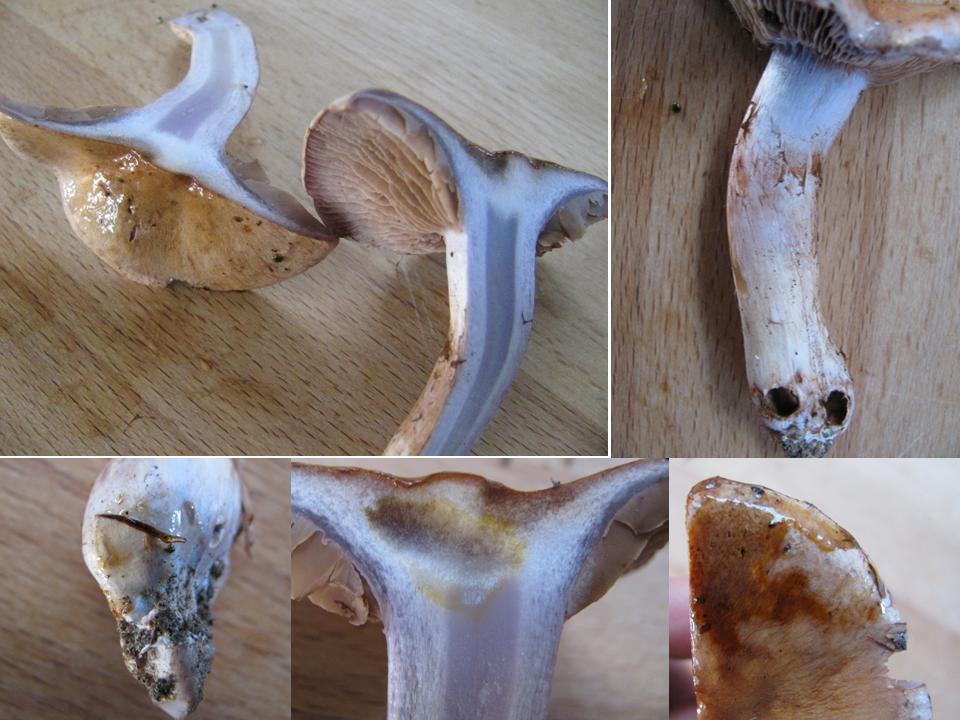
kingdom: Fungi
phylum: Basidiomycota
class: Agaricomycetes
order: Agaricales
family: Cortinariaceae
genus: Cortinarius
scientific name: Cortinarius largus
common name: violetrandet slørhat
